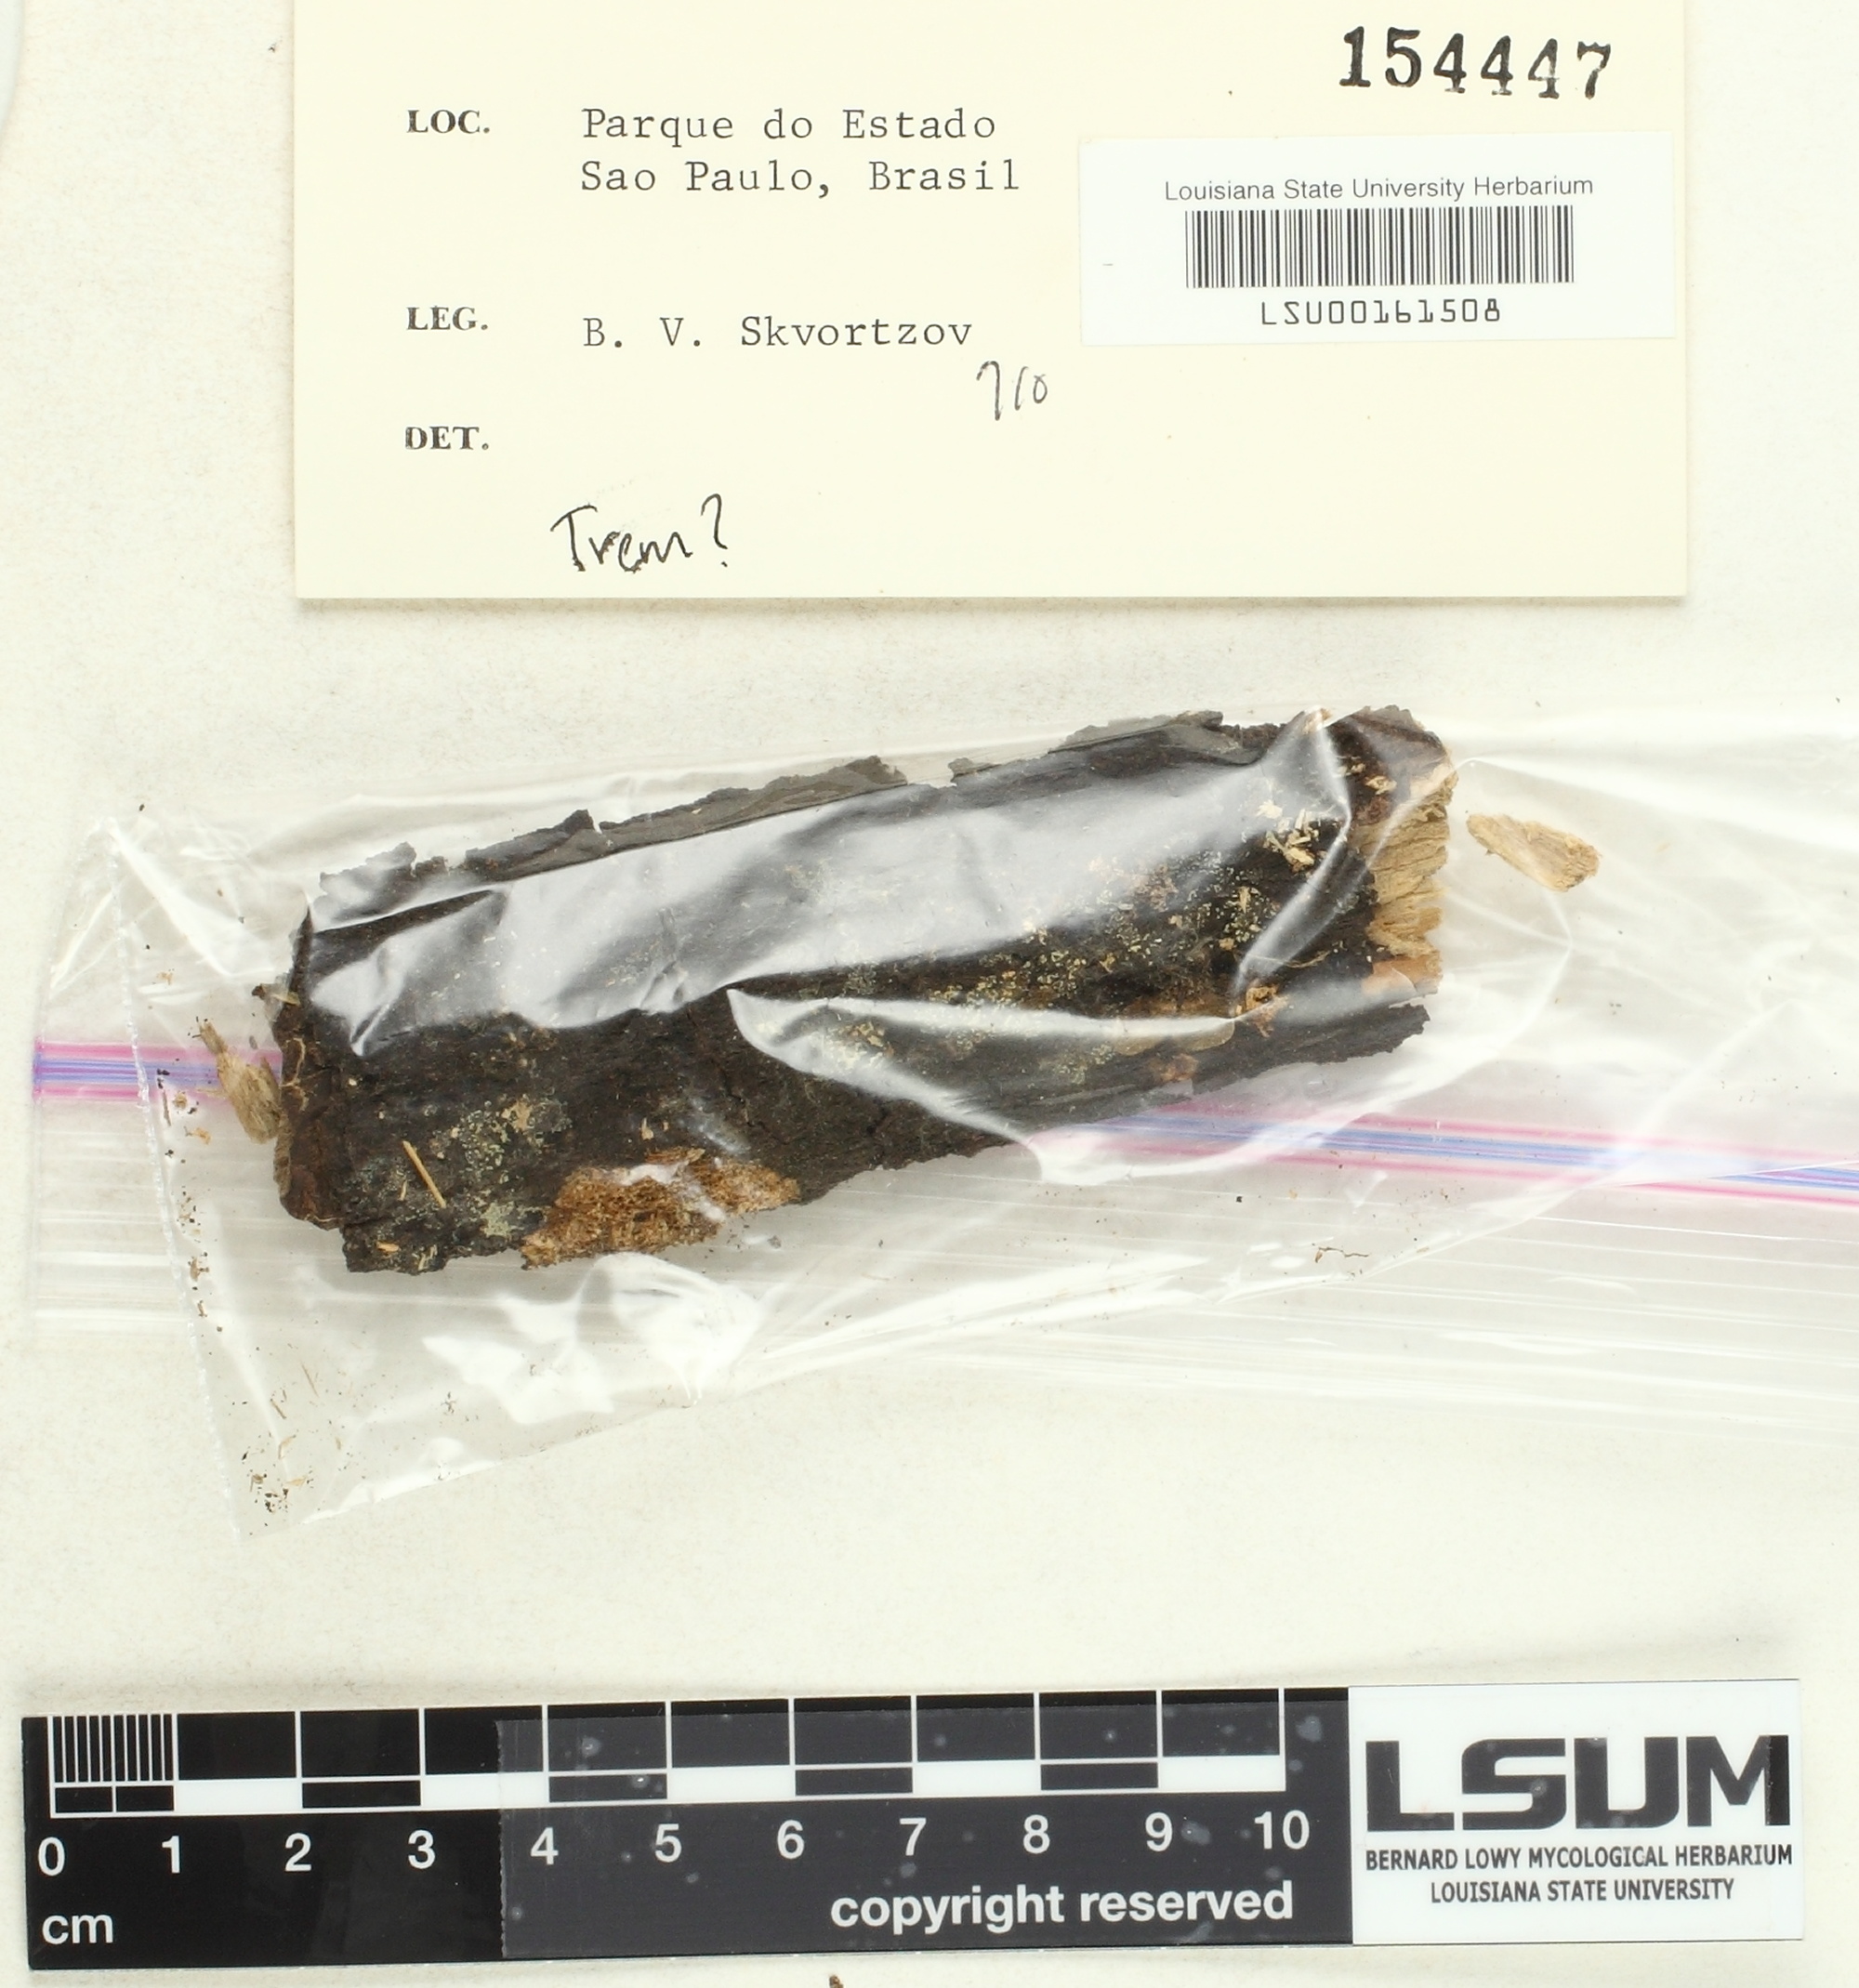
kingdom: Fungi
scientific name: Fungi
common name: Fungi
